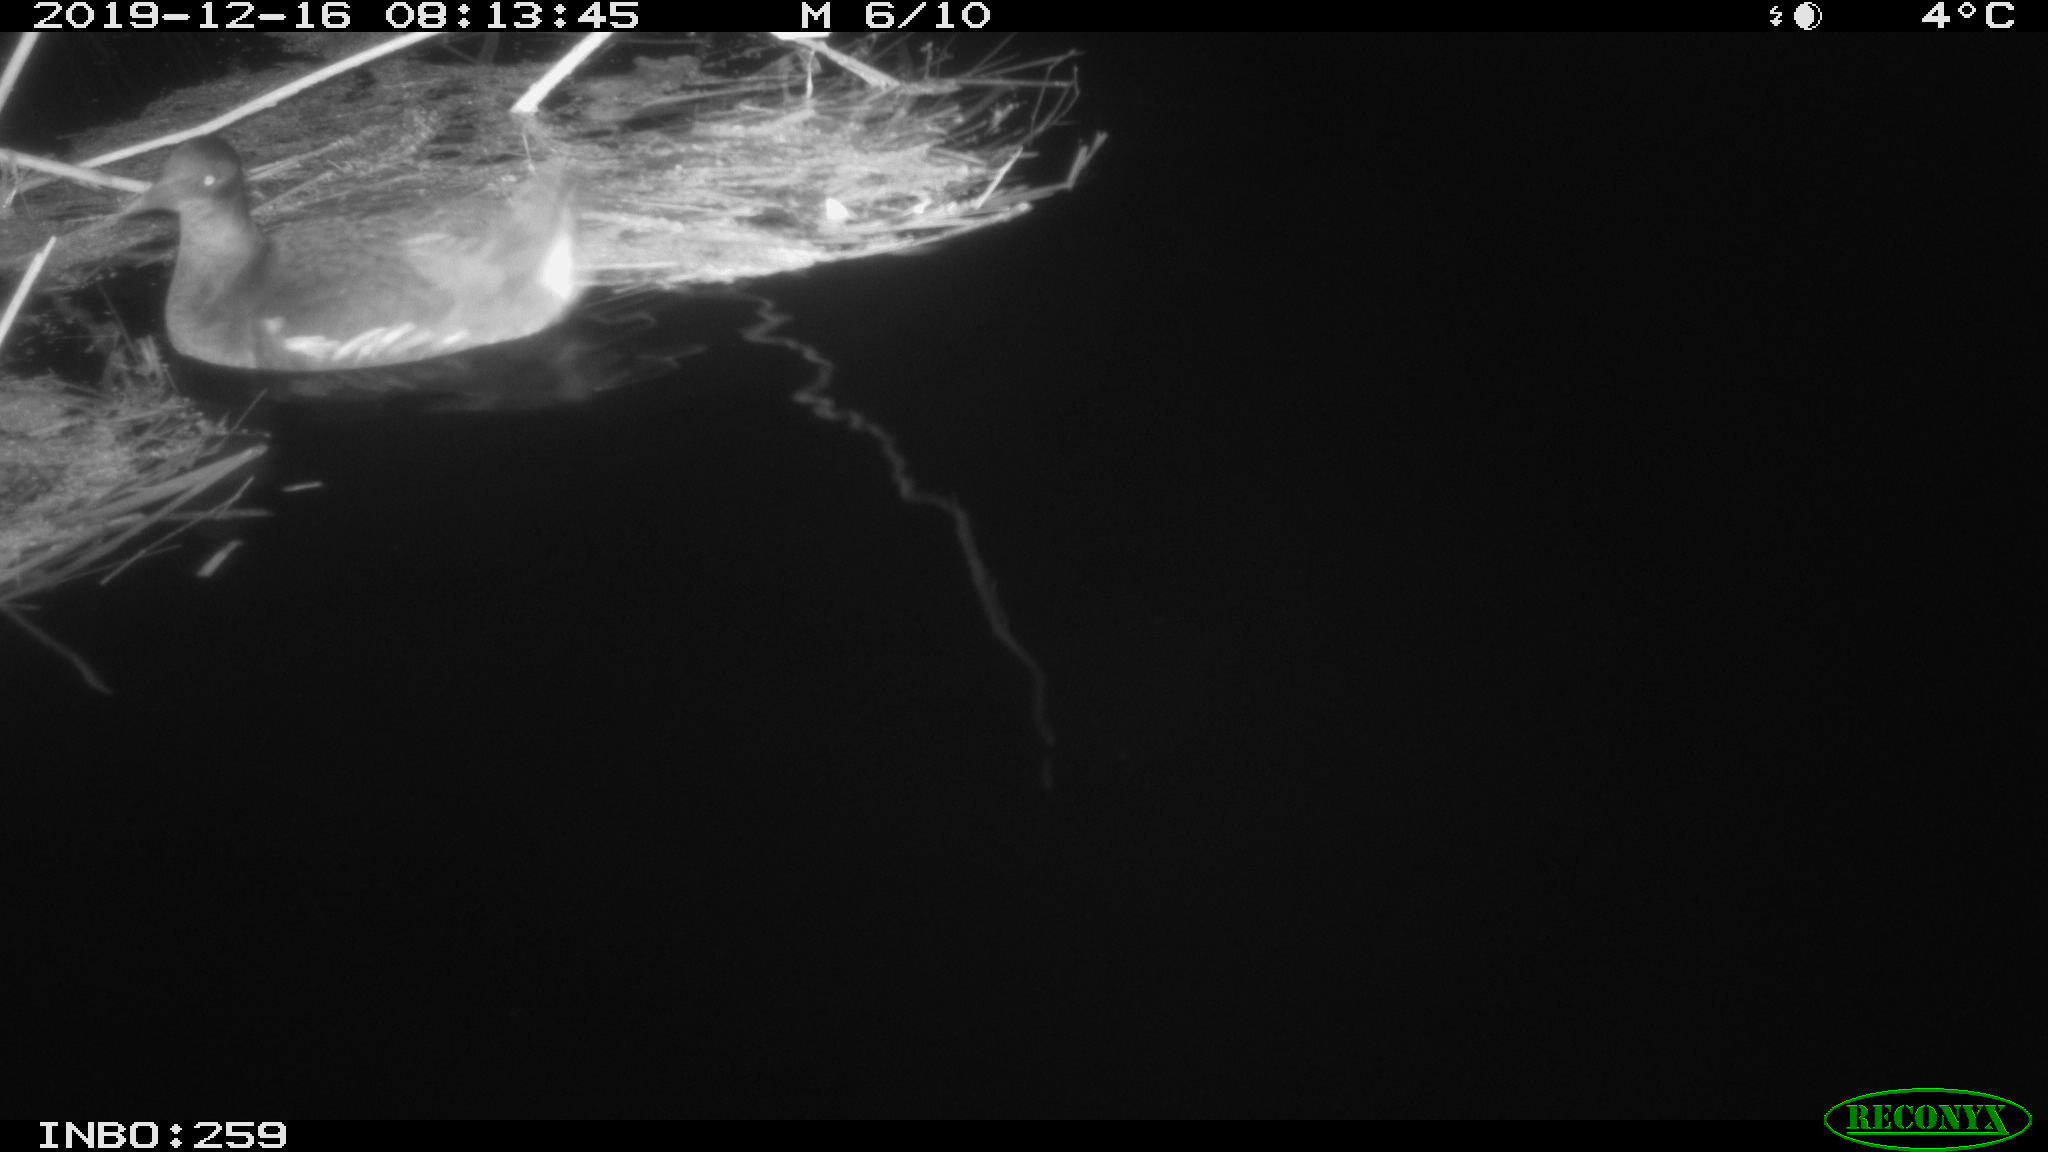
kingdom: Animalia
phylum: Chordata
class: Aves
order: Gruiformes
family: Rallidae
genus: Gallinula
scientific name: Gallinula chloropus
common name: Common moorhen
